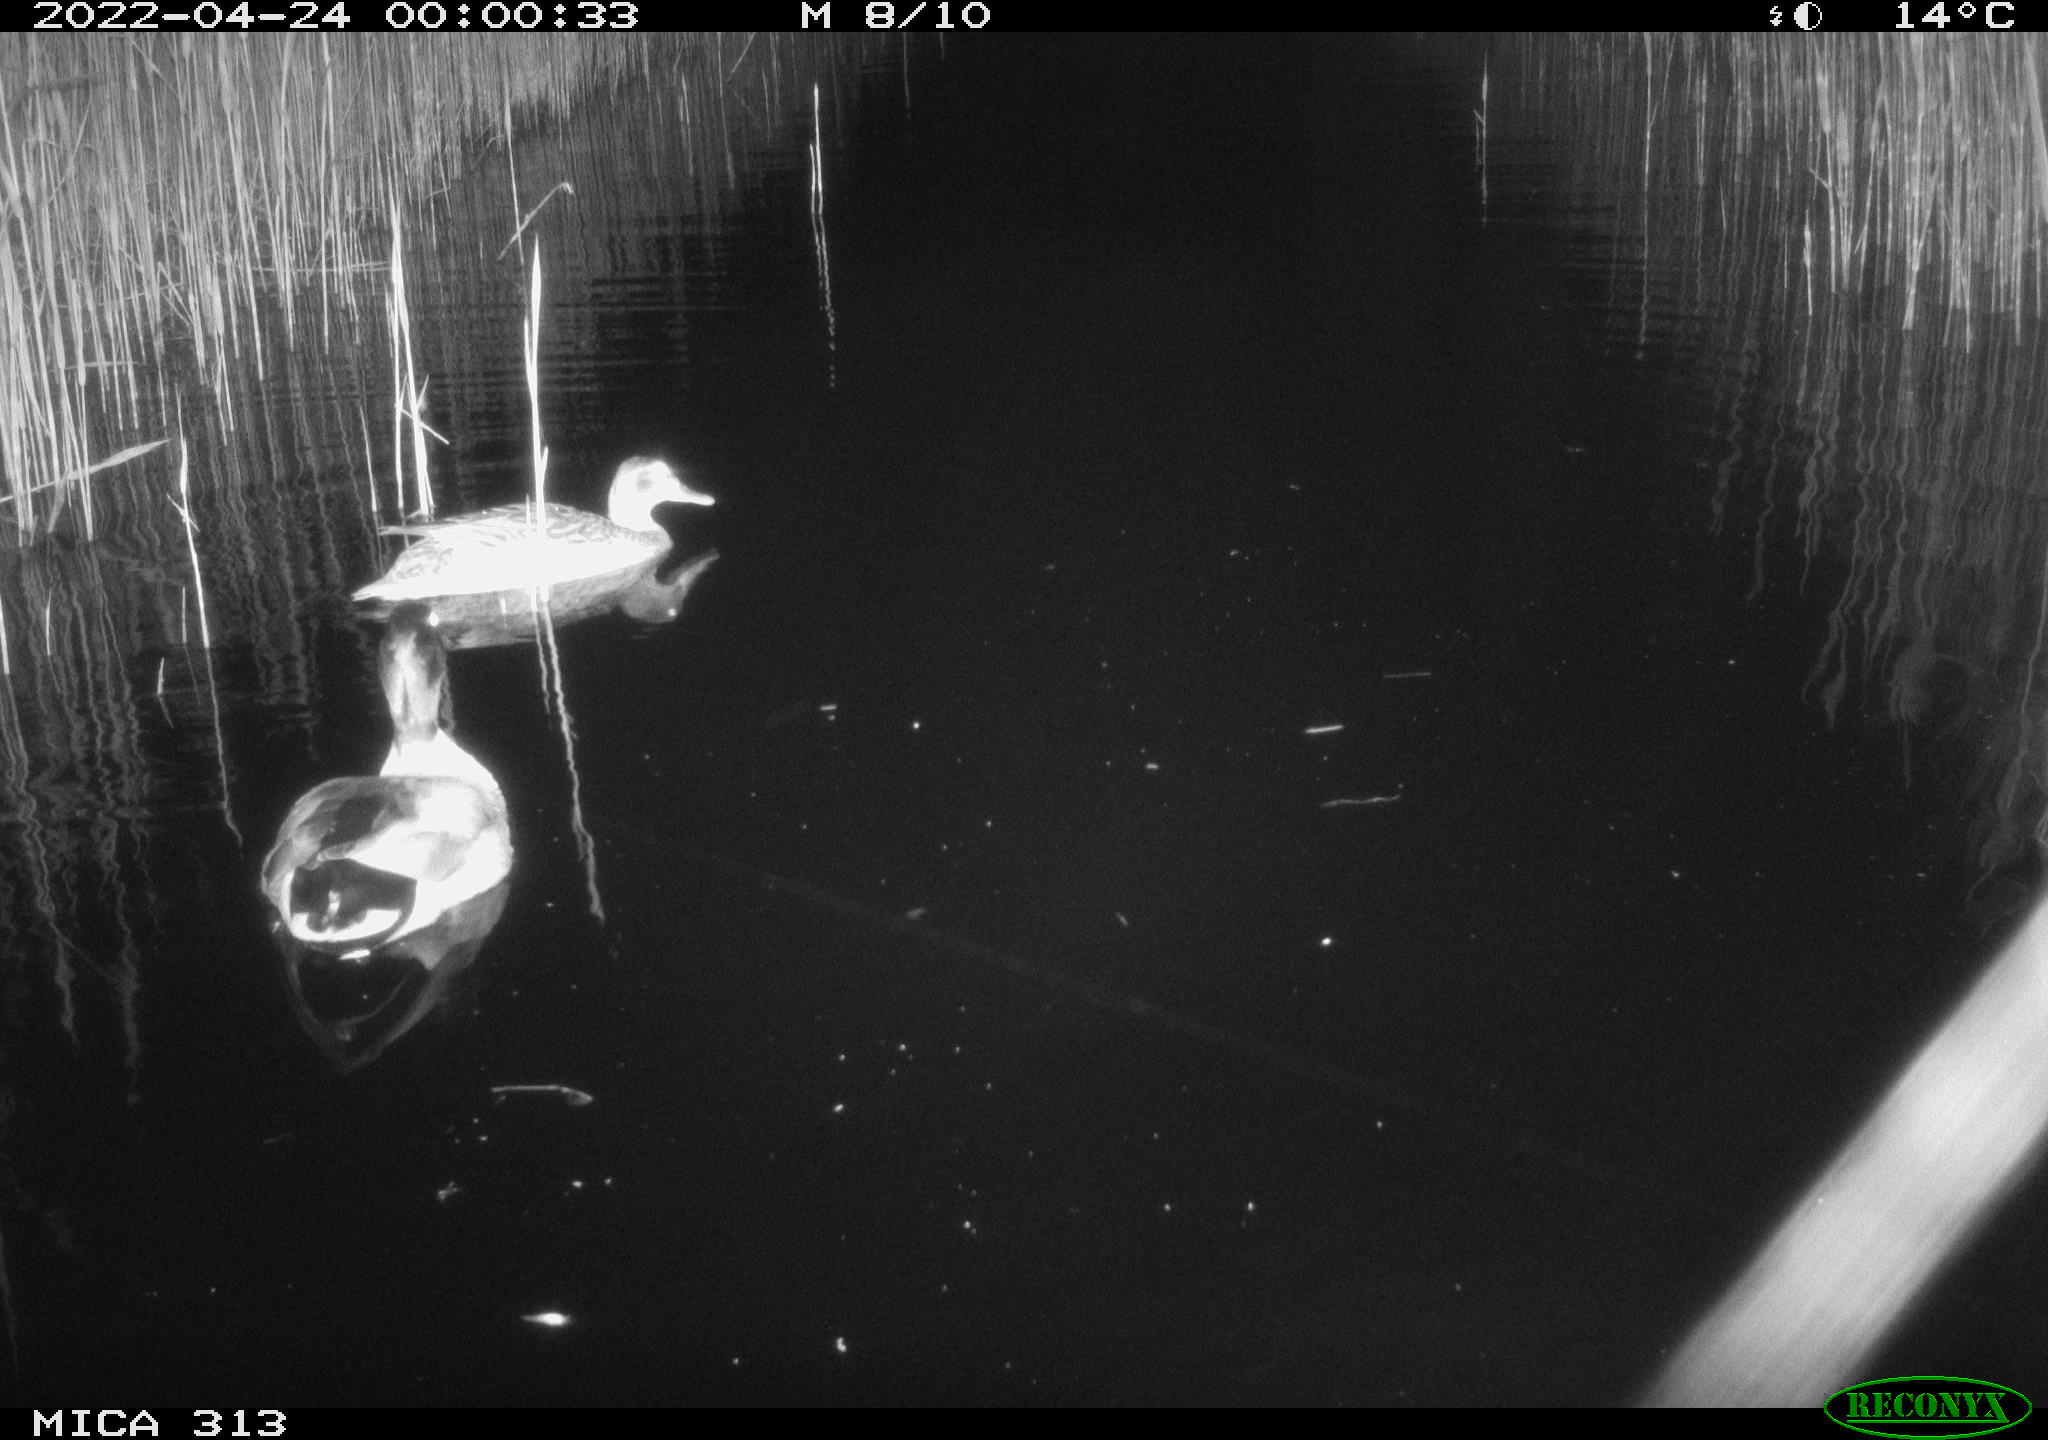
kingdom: Animalia
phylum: Chordata
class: Aves
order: Anseriformes
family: Anatidae
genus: Anas
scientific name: Anas platyrhynchos
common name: Mallard
